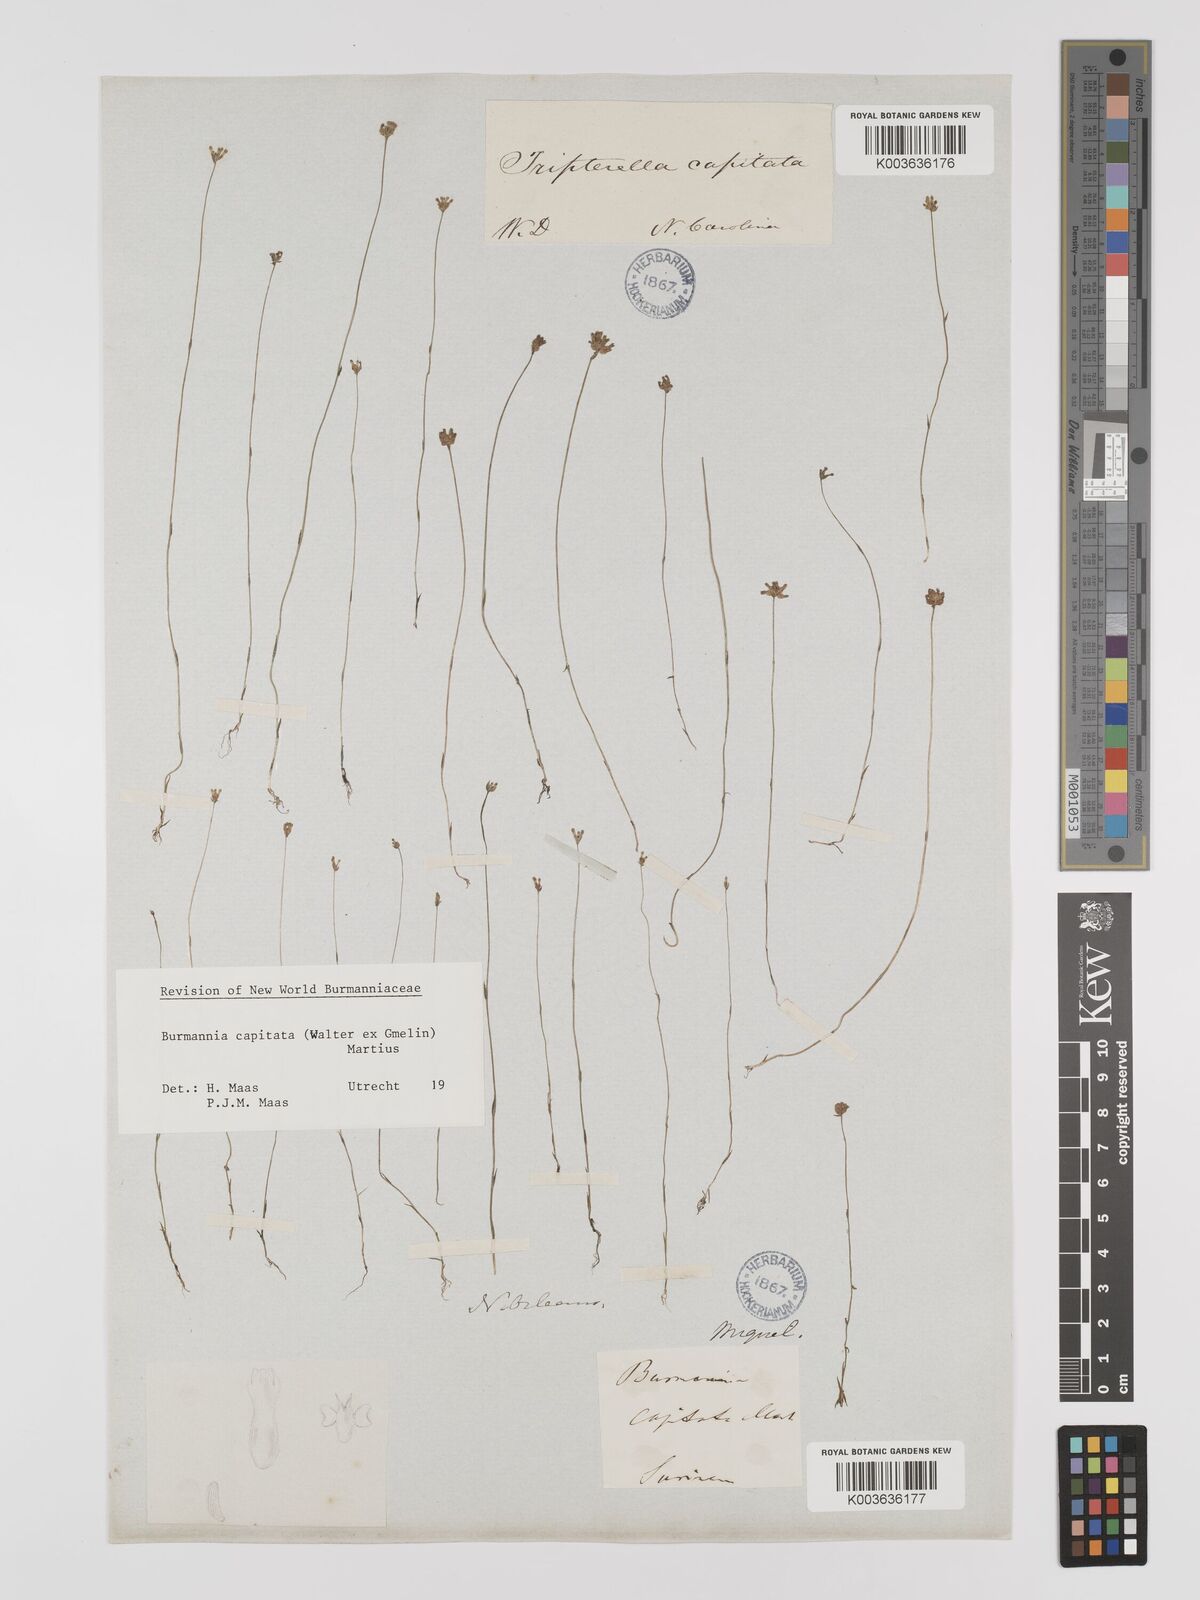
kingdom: Plantae
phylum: Tracheophyta
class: Liliopsida
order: Dioscoreales
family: Burmanniaceae
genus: Burmannia
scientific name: Burmannia capitata
